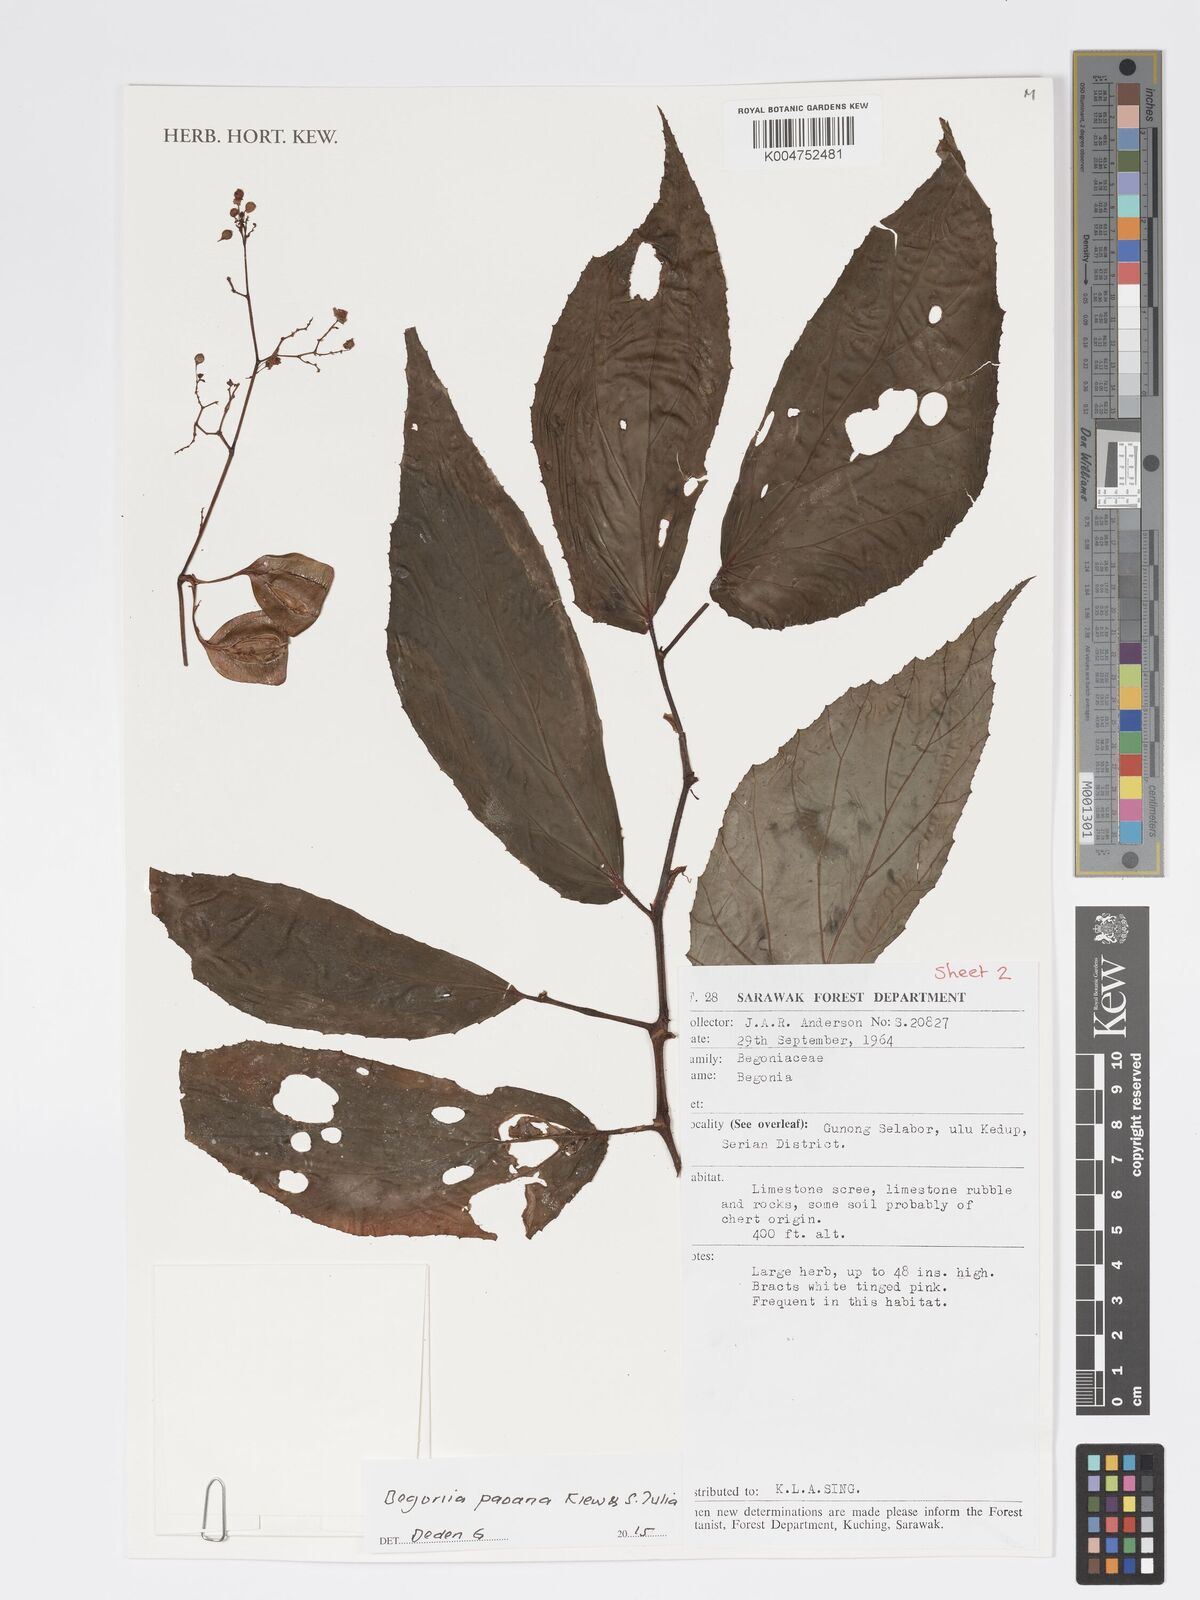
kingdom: Plantae
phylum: Tracheophyta
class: Magnoliopsida
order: Cucurbitales
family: Begoniaceae
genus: Begonia
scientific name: Begonia paoana
